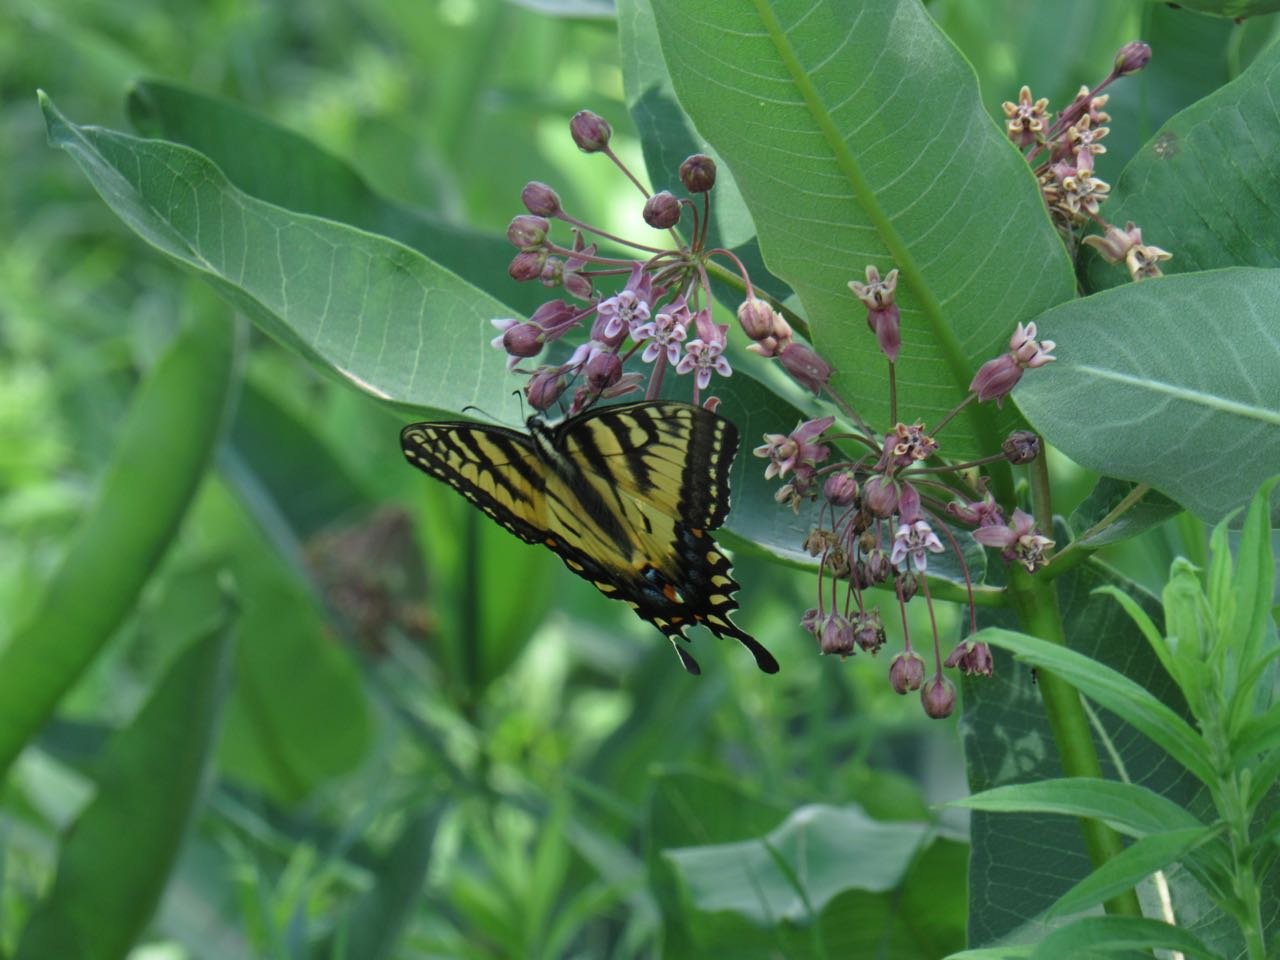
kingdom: Animalia
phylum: Arthropoda
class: Insecta
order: Lepidoptera
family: Papilionidae
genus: Pterourus
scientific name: Pterourus
